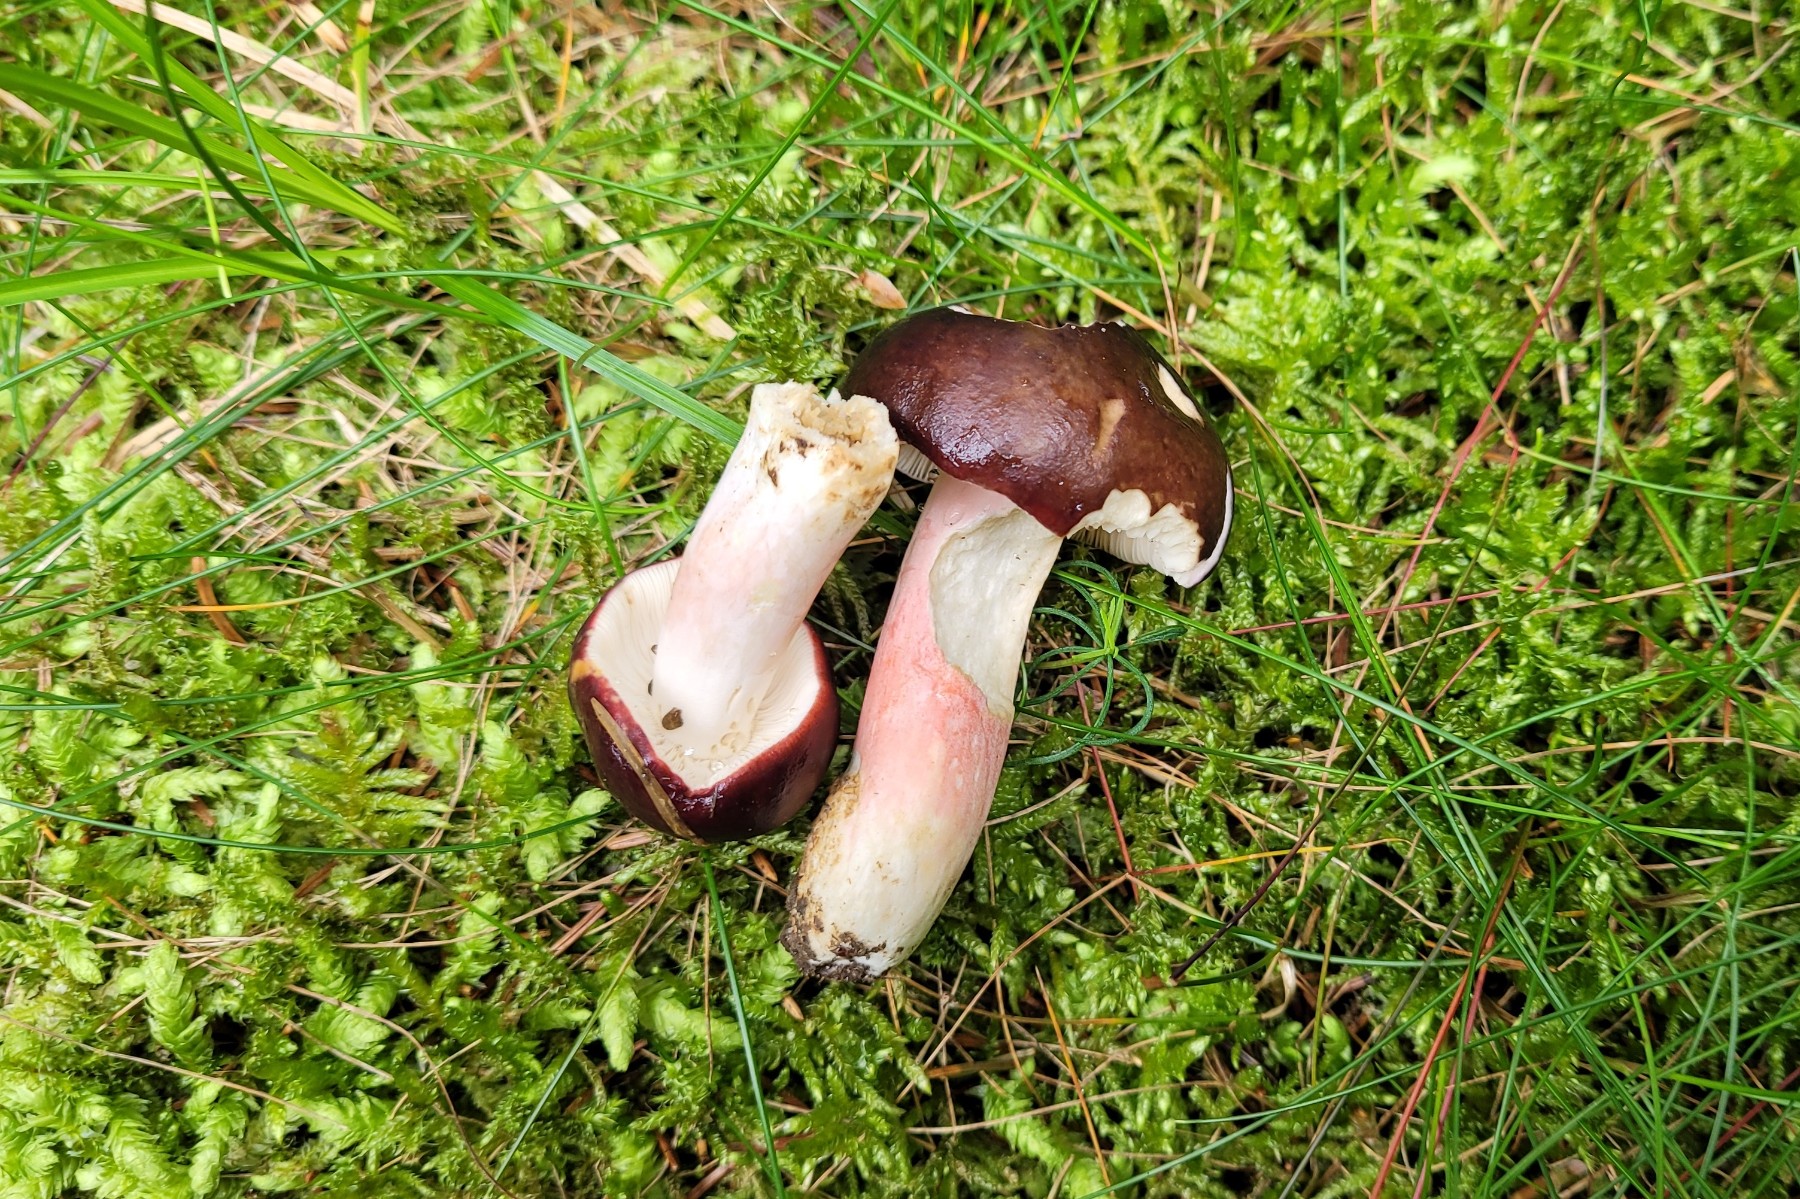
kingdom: Fungi
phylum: Basidiomycota
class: Agaricomycetes
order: Russulales
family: Russulaceae
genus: Russula
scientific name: Russula queletii
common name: Quélets skørhat
